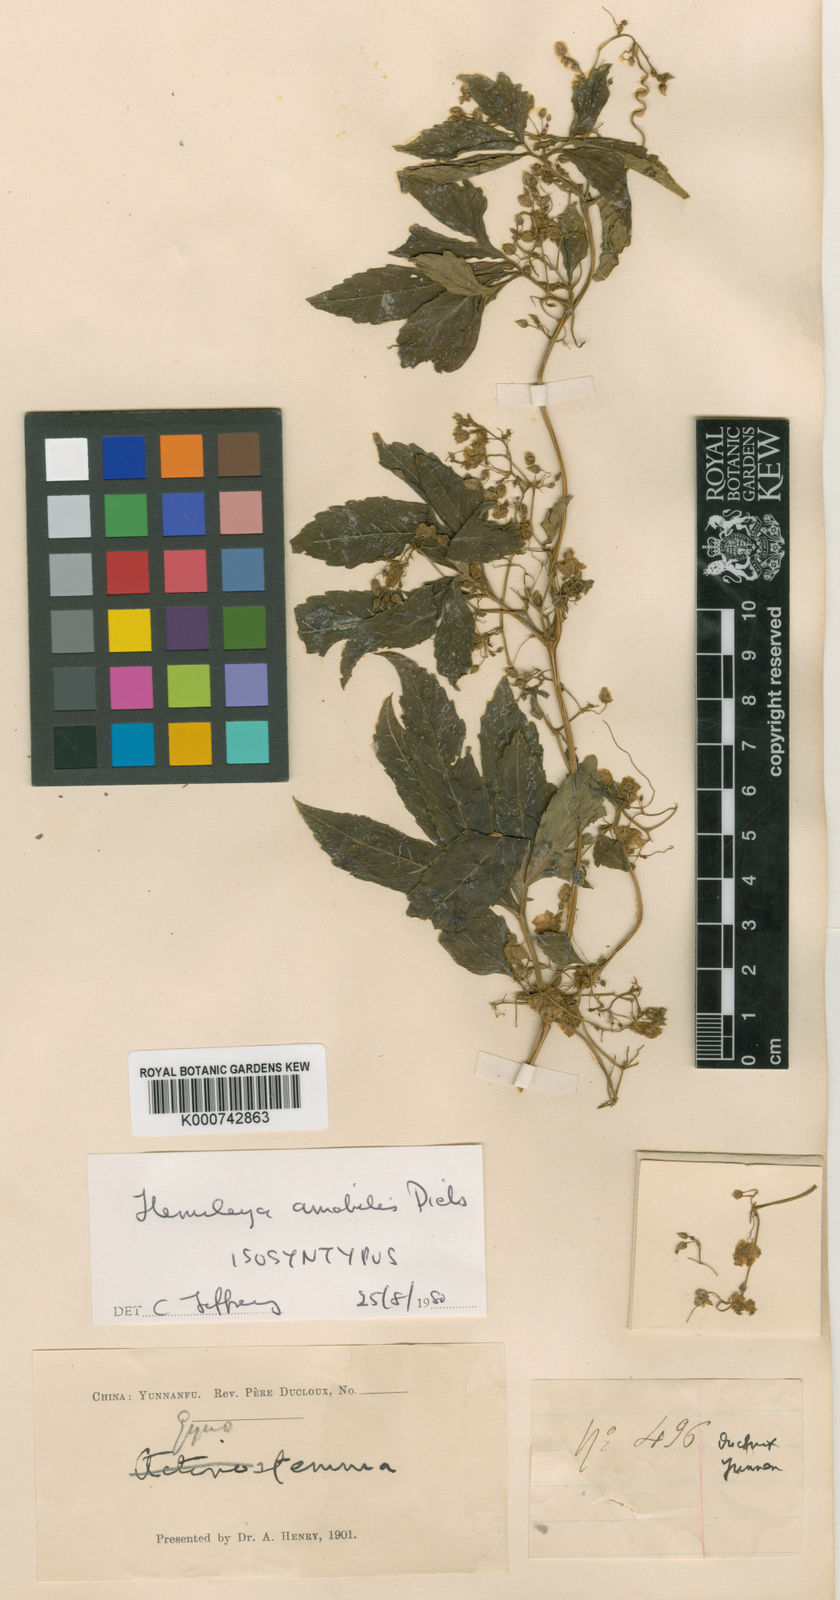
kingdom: Plantae
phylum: Tracheophyta
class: Magnoliopsida
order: Cucurbitales
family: Cucurbitaceae
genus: Hemsleya
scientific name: Hemsleya amabilis
